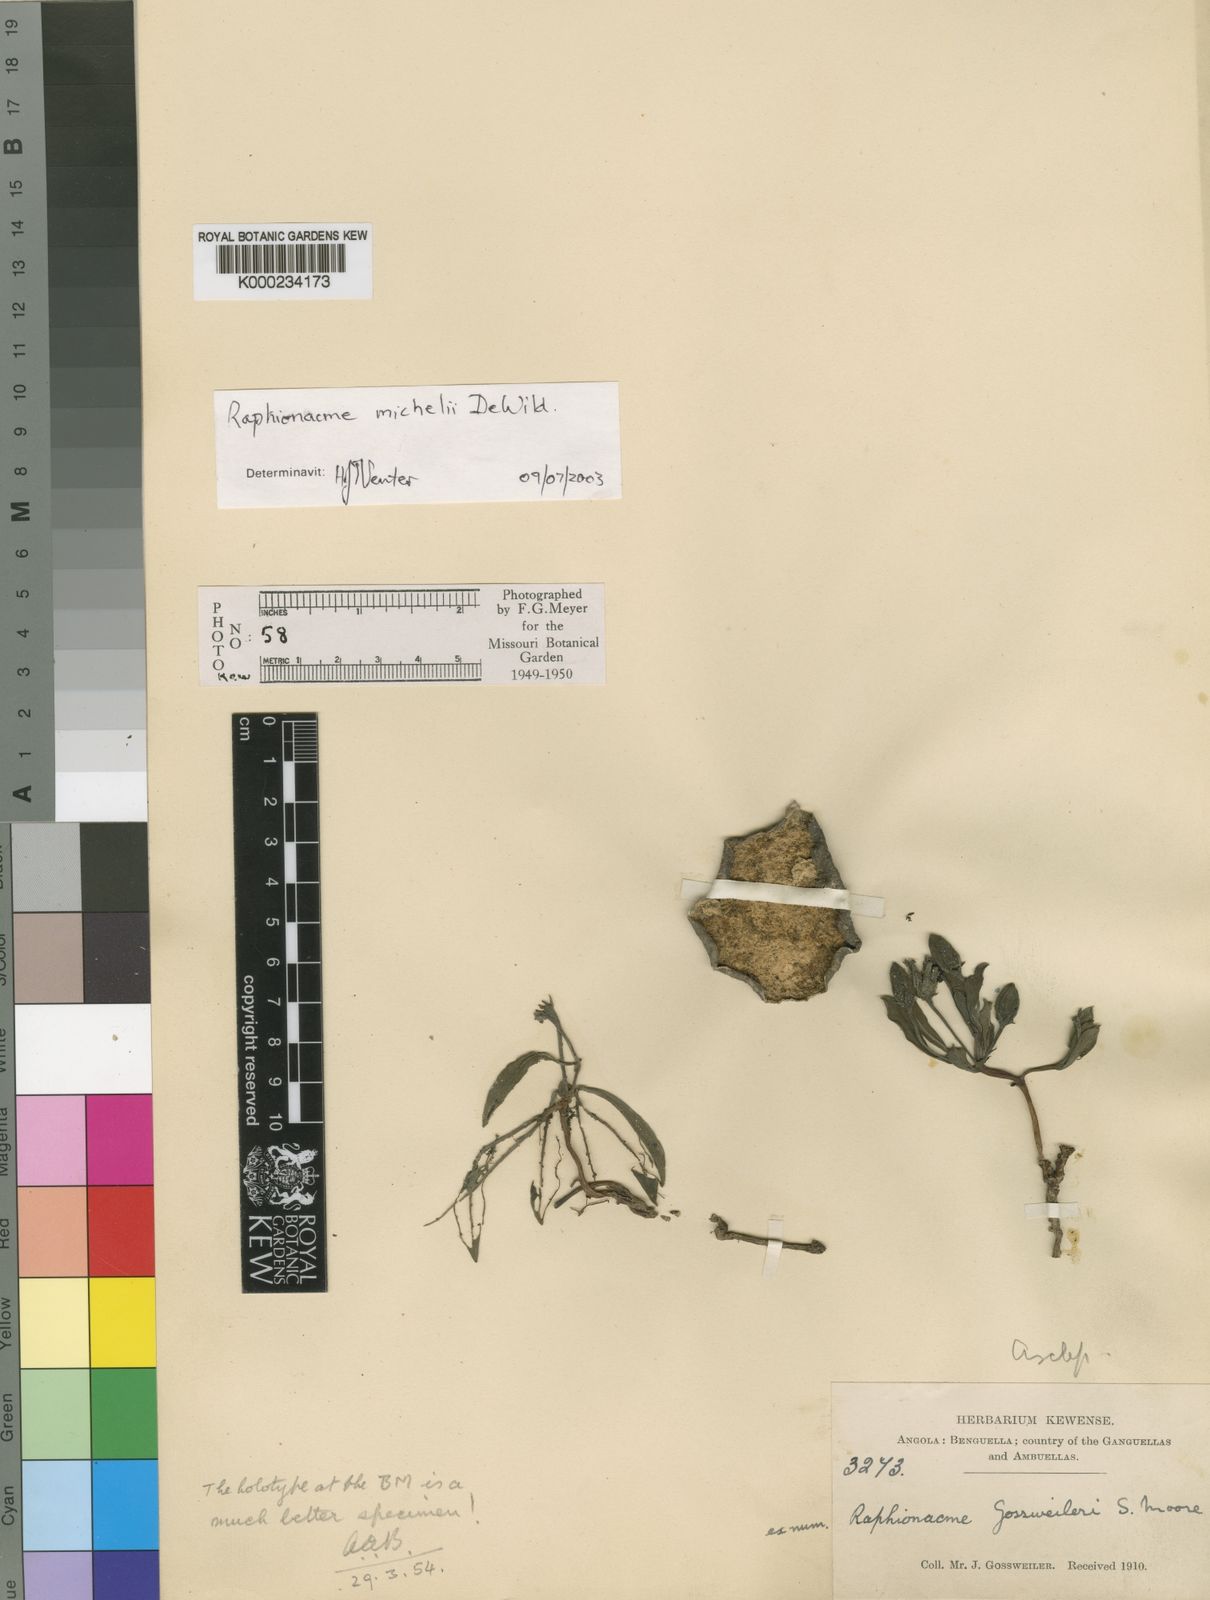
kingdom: Plantae
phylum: Tracheophyta
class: Magnoliopsida
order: Gentianales
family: Apocynaceae
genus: Raphionacme
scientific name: Raphionacme splendens
